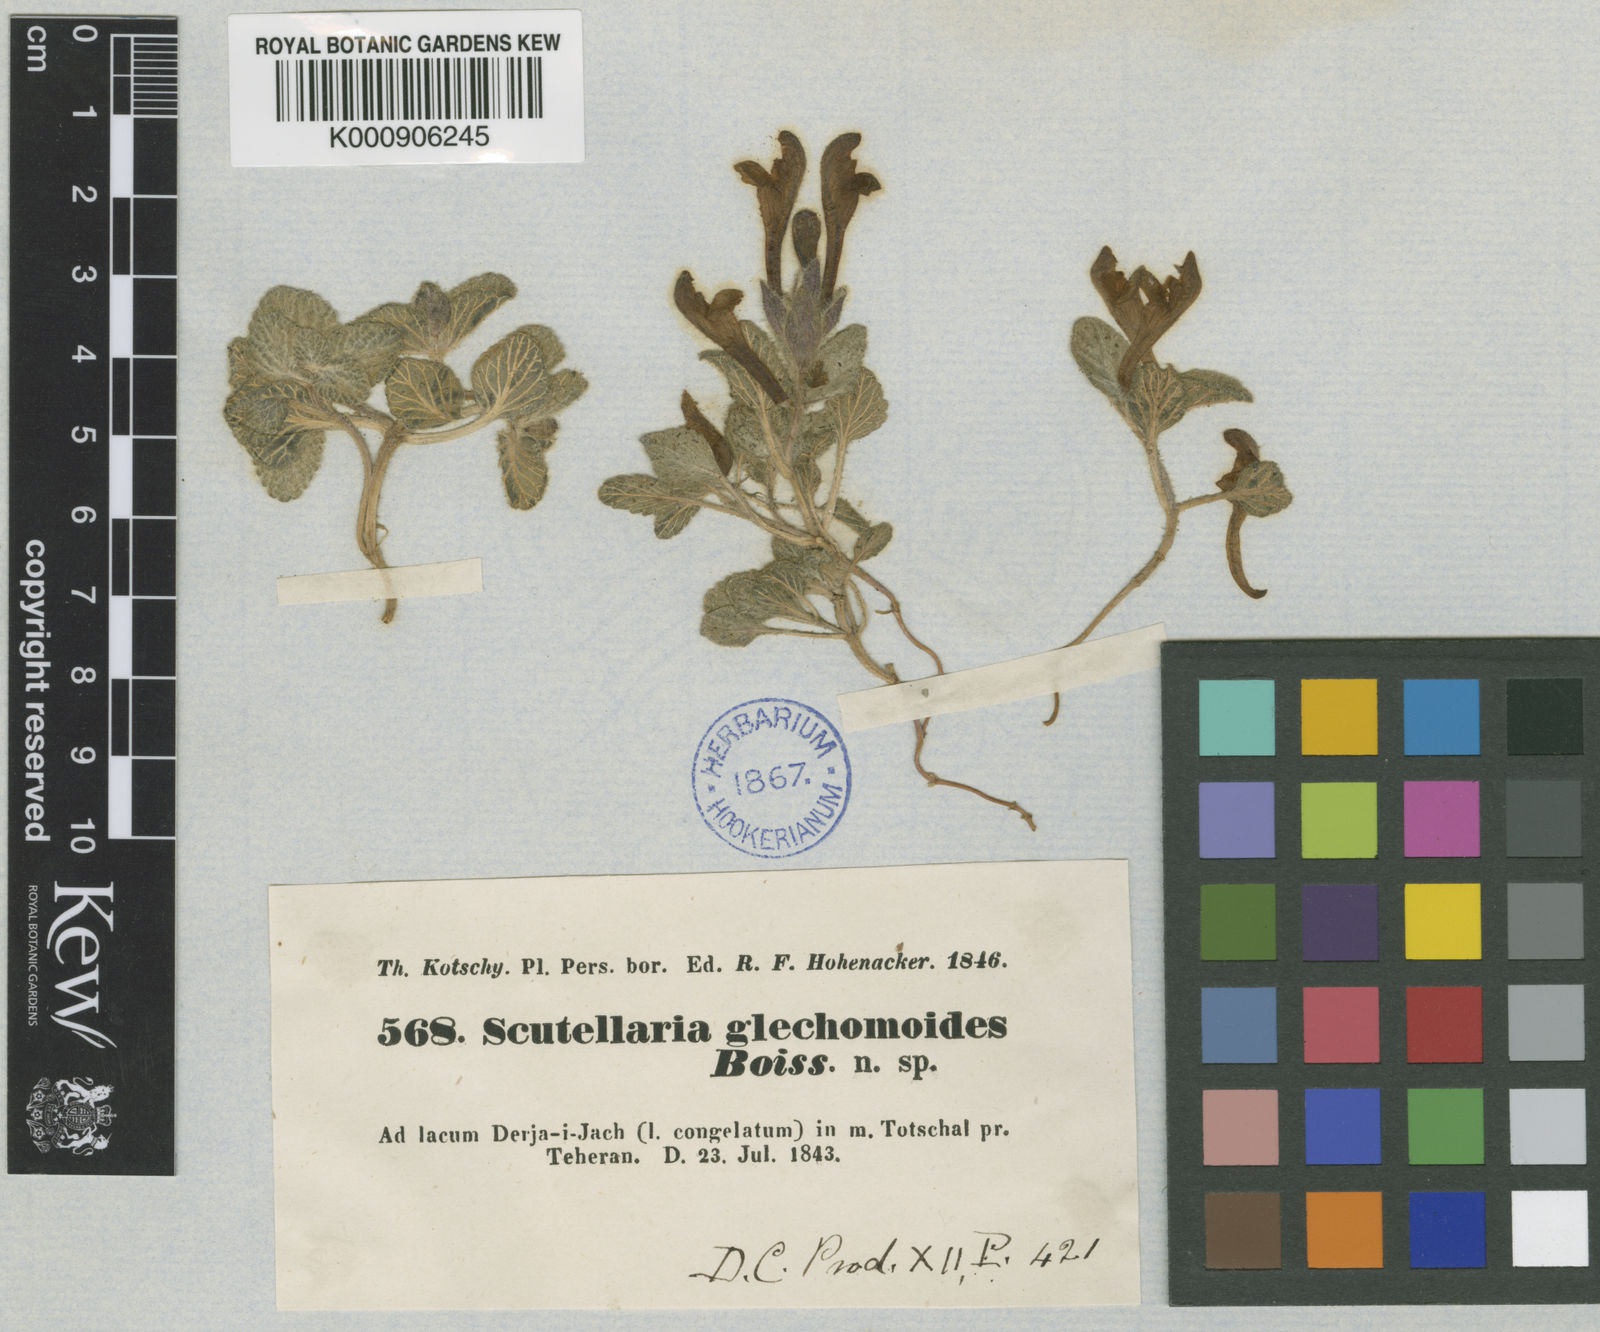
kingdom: Plantae
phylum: Tracheophyta
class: Magnoliopsida
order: Lamiales
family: Lamiaceae
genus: Scutellaria
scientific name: Scutellaria
